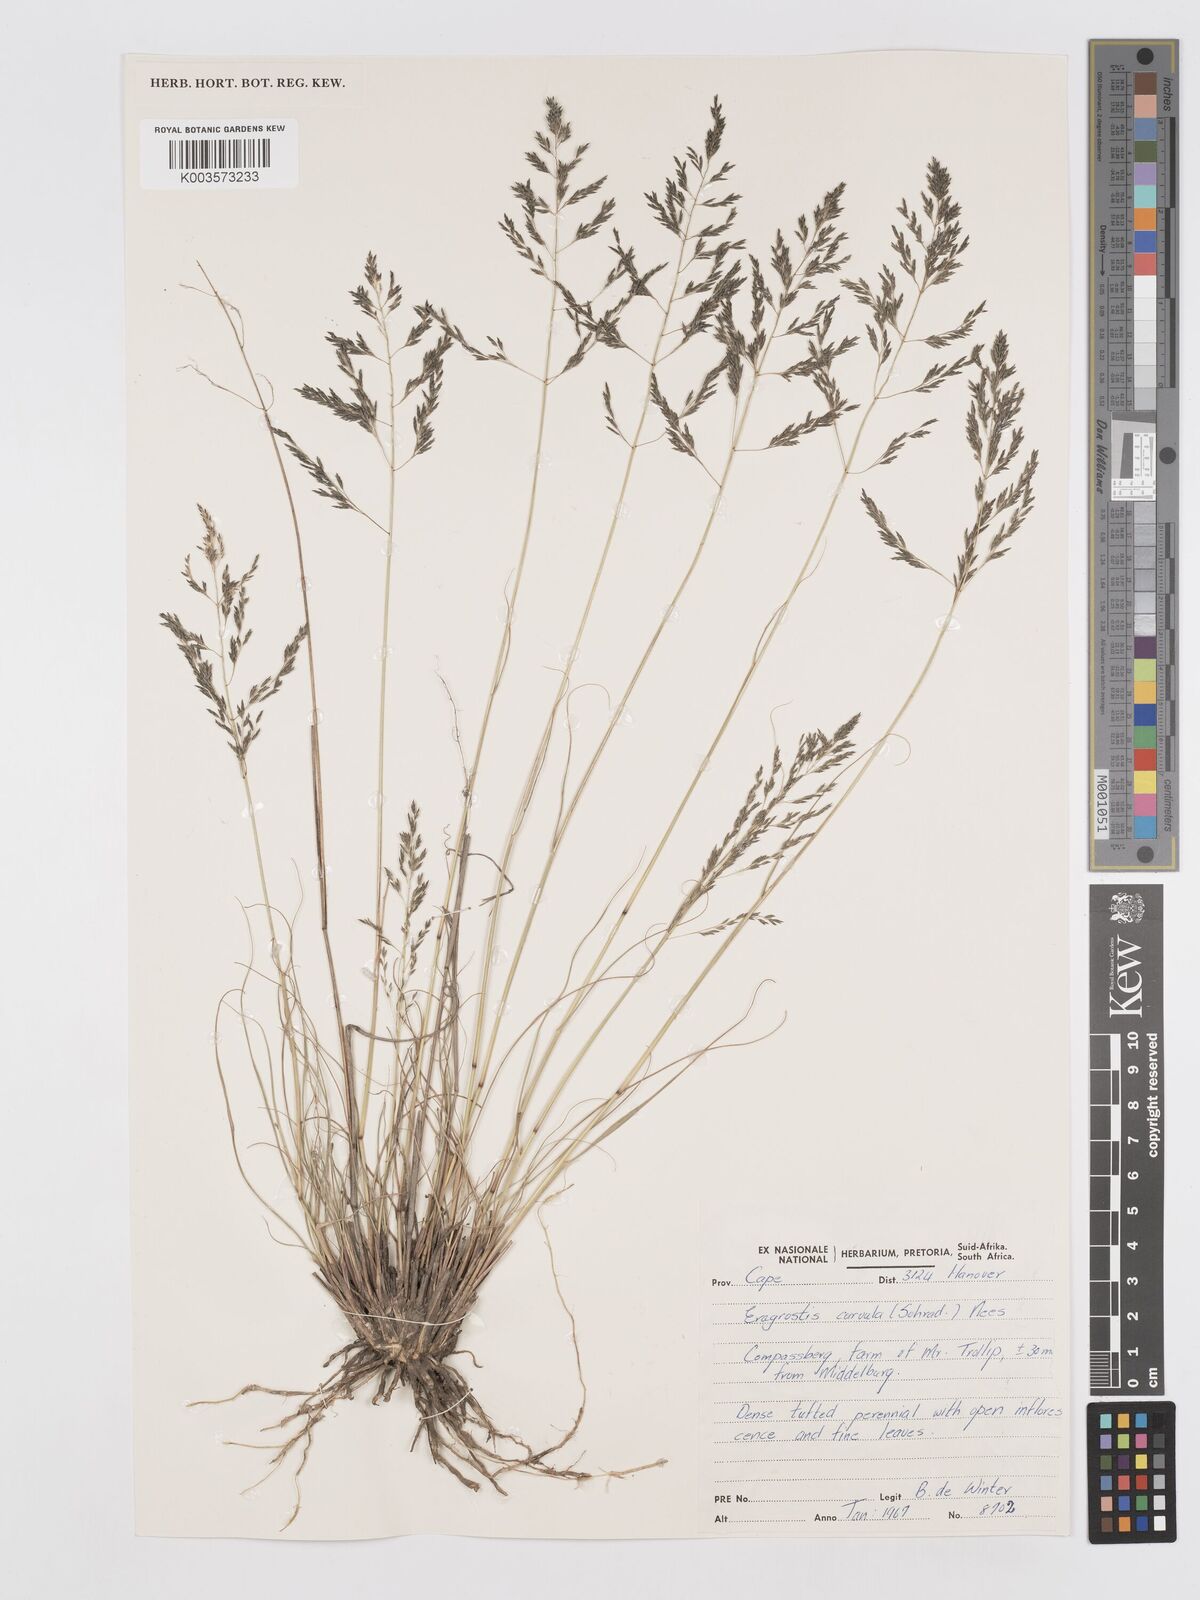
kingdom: Plantae
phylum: Tracheophyta
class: Liliopsida
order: Poales
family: Poaceae
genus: Eragrostis
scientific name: Eragrostis curvula
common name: African love-grass
